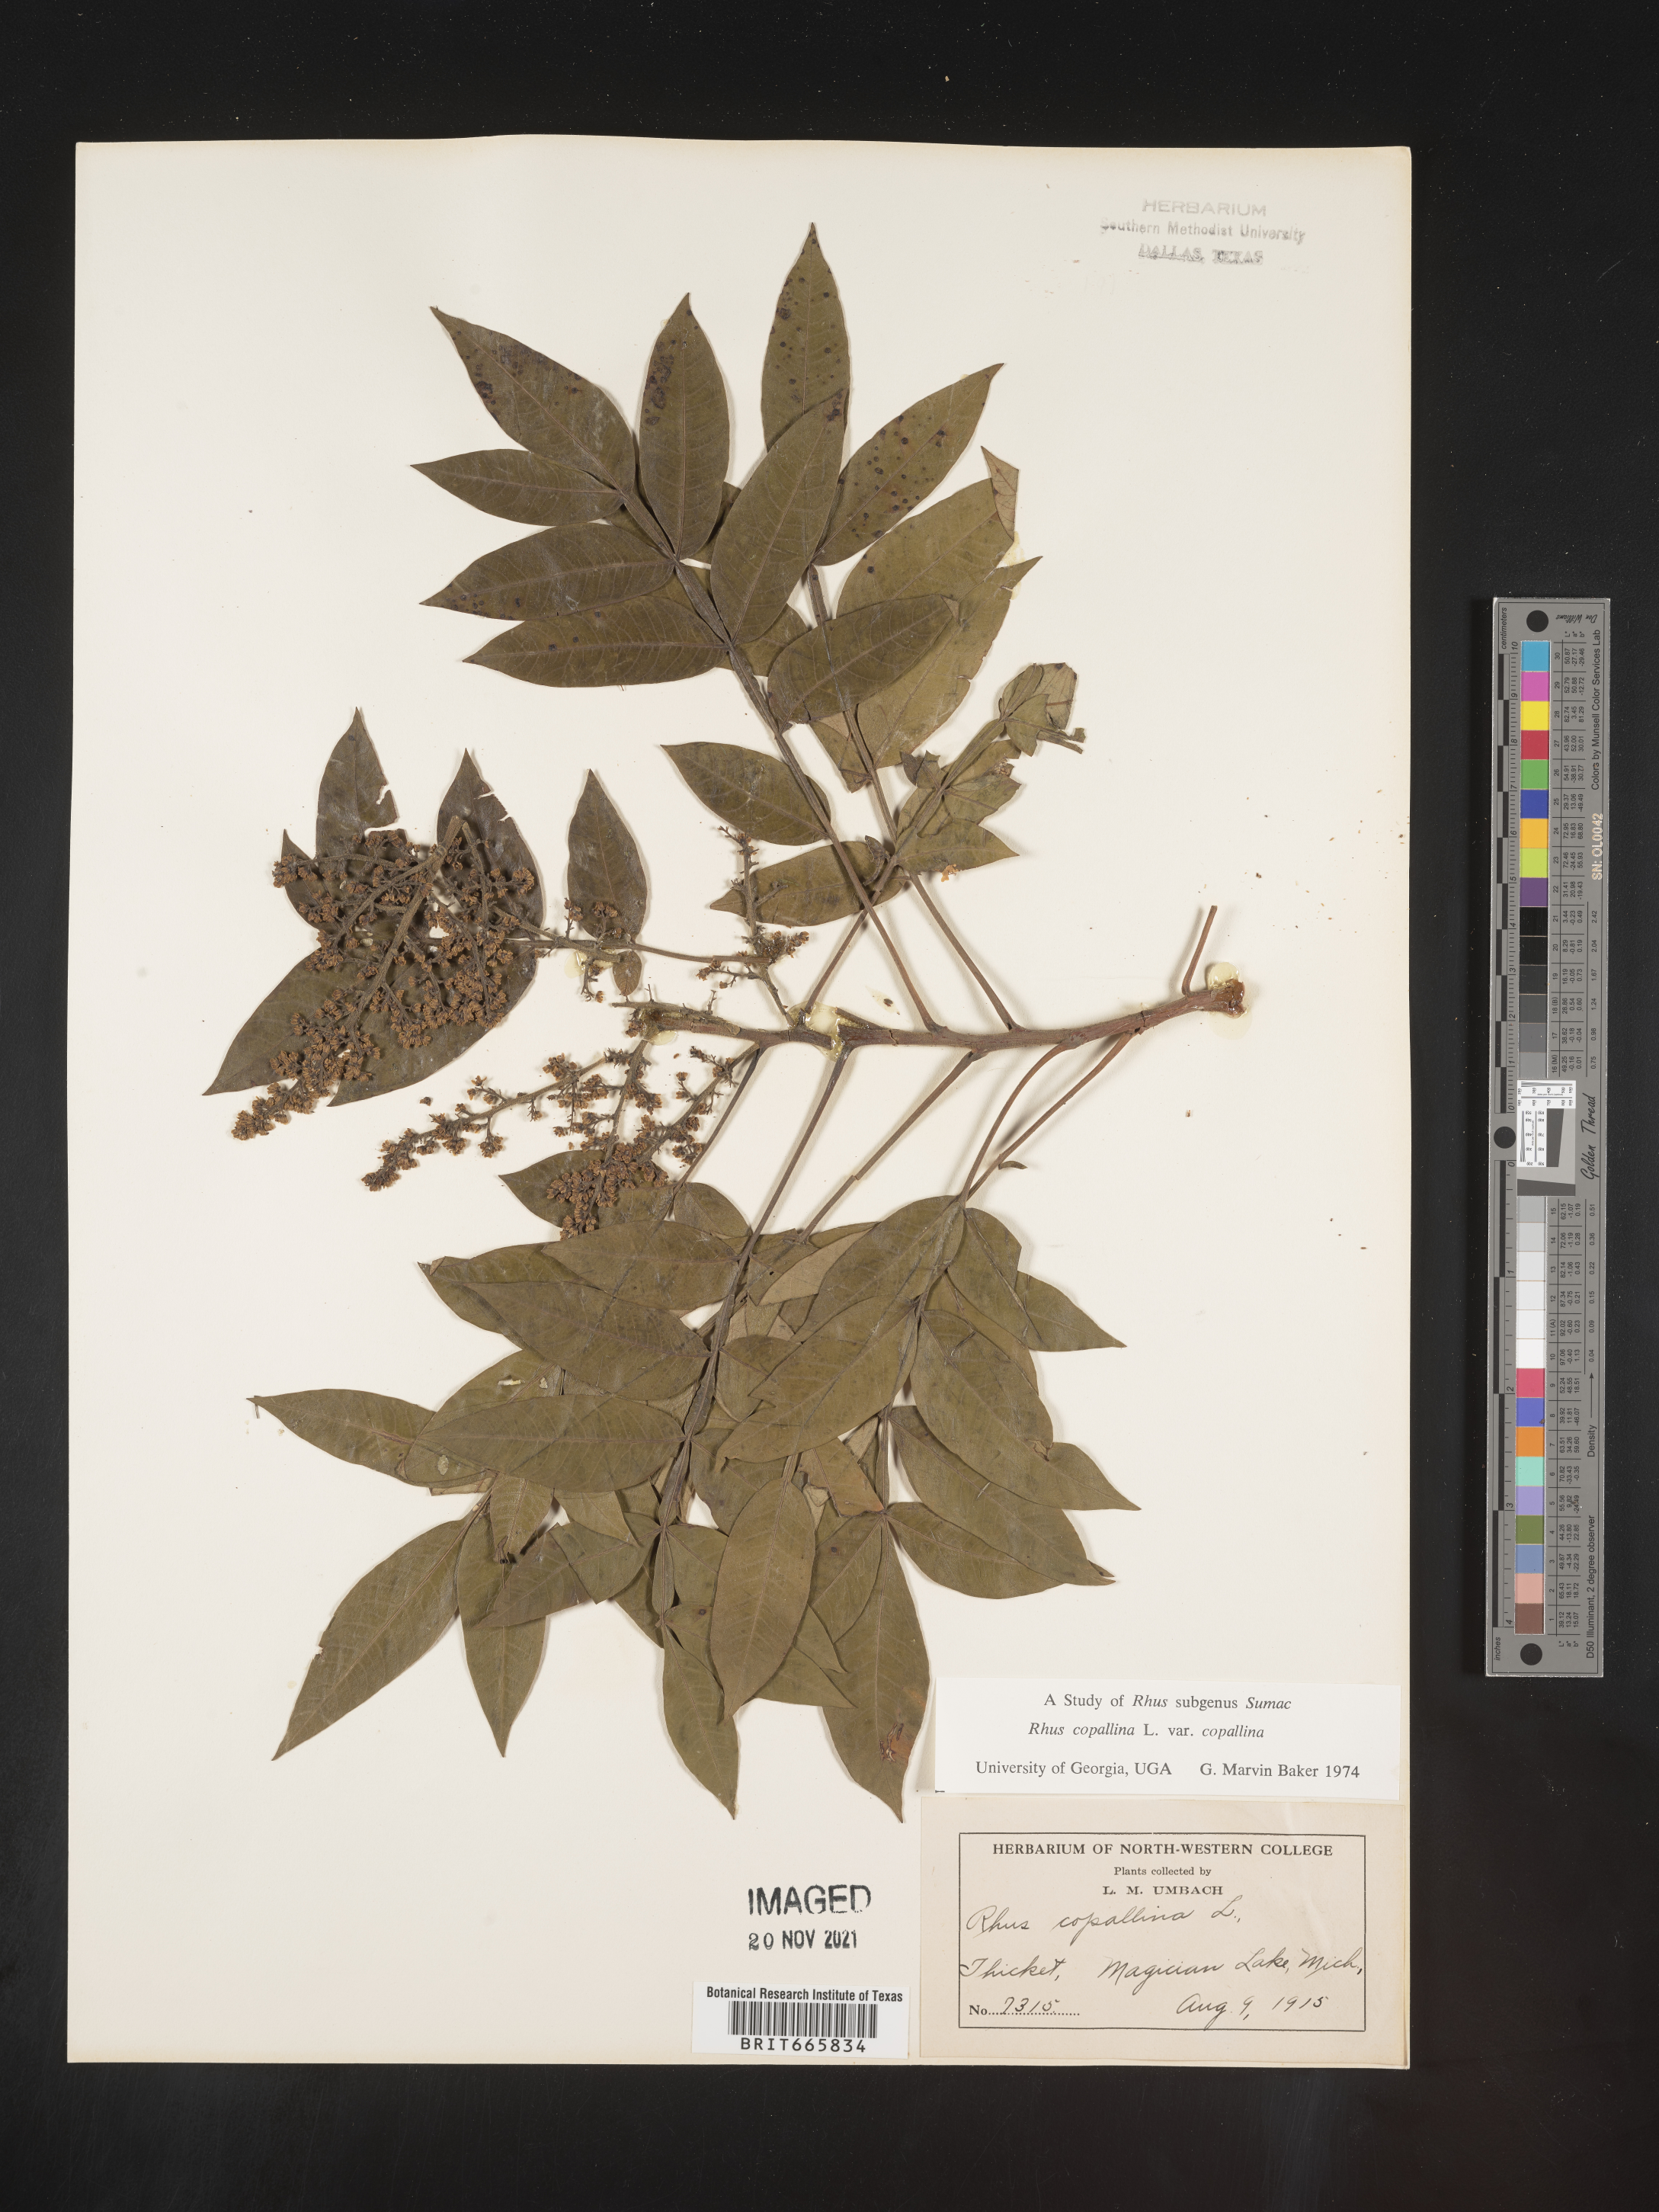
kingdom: Plantae
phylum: Tracheophyta
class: Magnoliopsida
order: Sapindales
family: Anacardiaceae
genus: Rhus
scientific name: Rhus copallina
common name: Shining sumac
